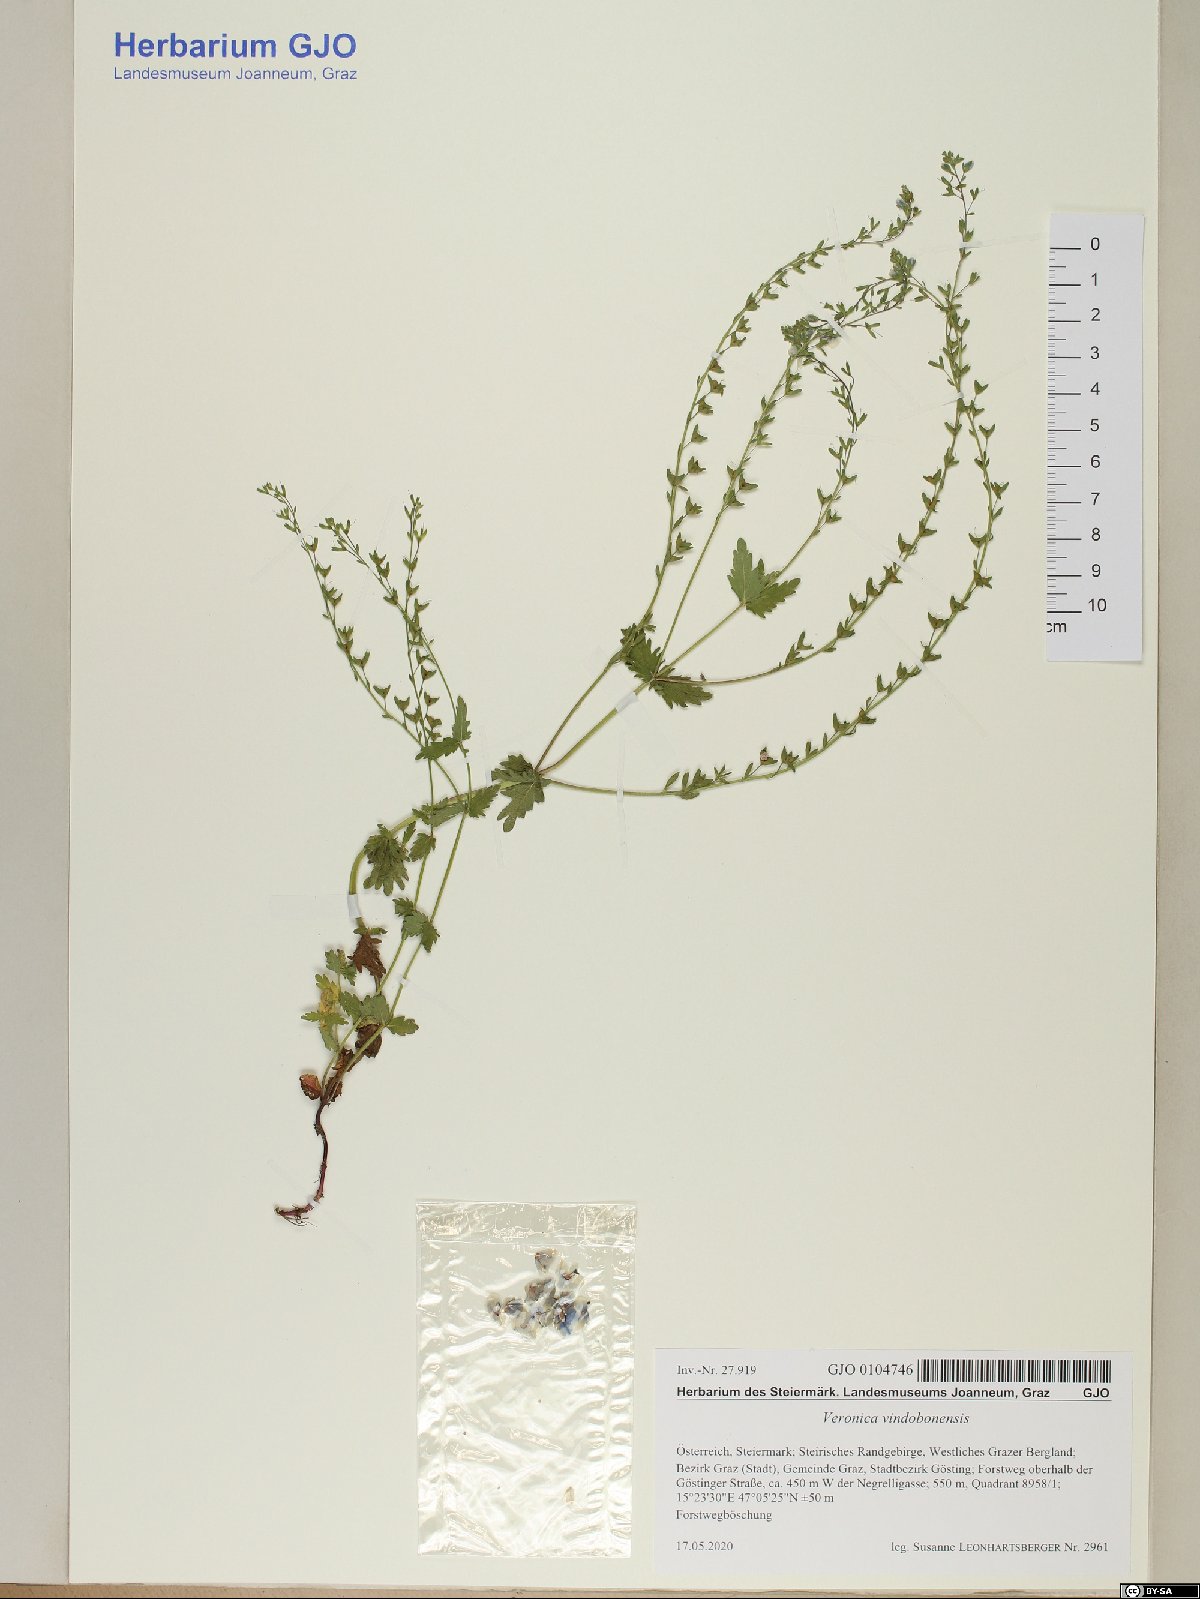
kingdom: Plantae
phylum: Tracheophyta
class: Magnoliopsida
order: Lamiales
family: Plantaginaceae
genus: Veronica
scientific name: Veronica vindobonensis
